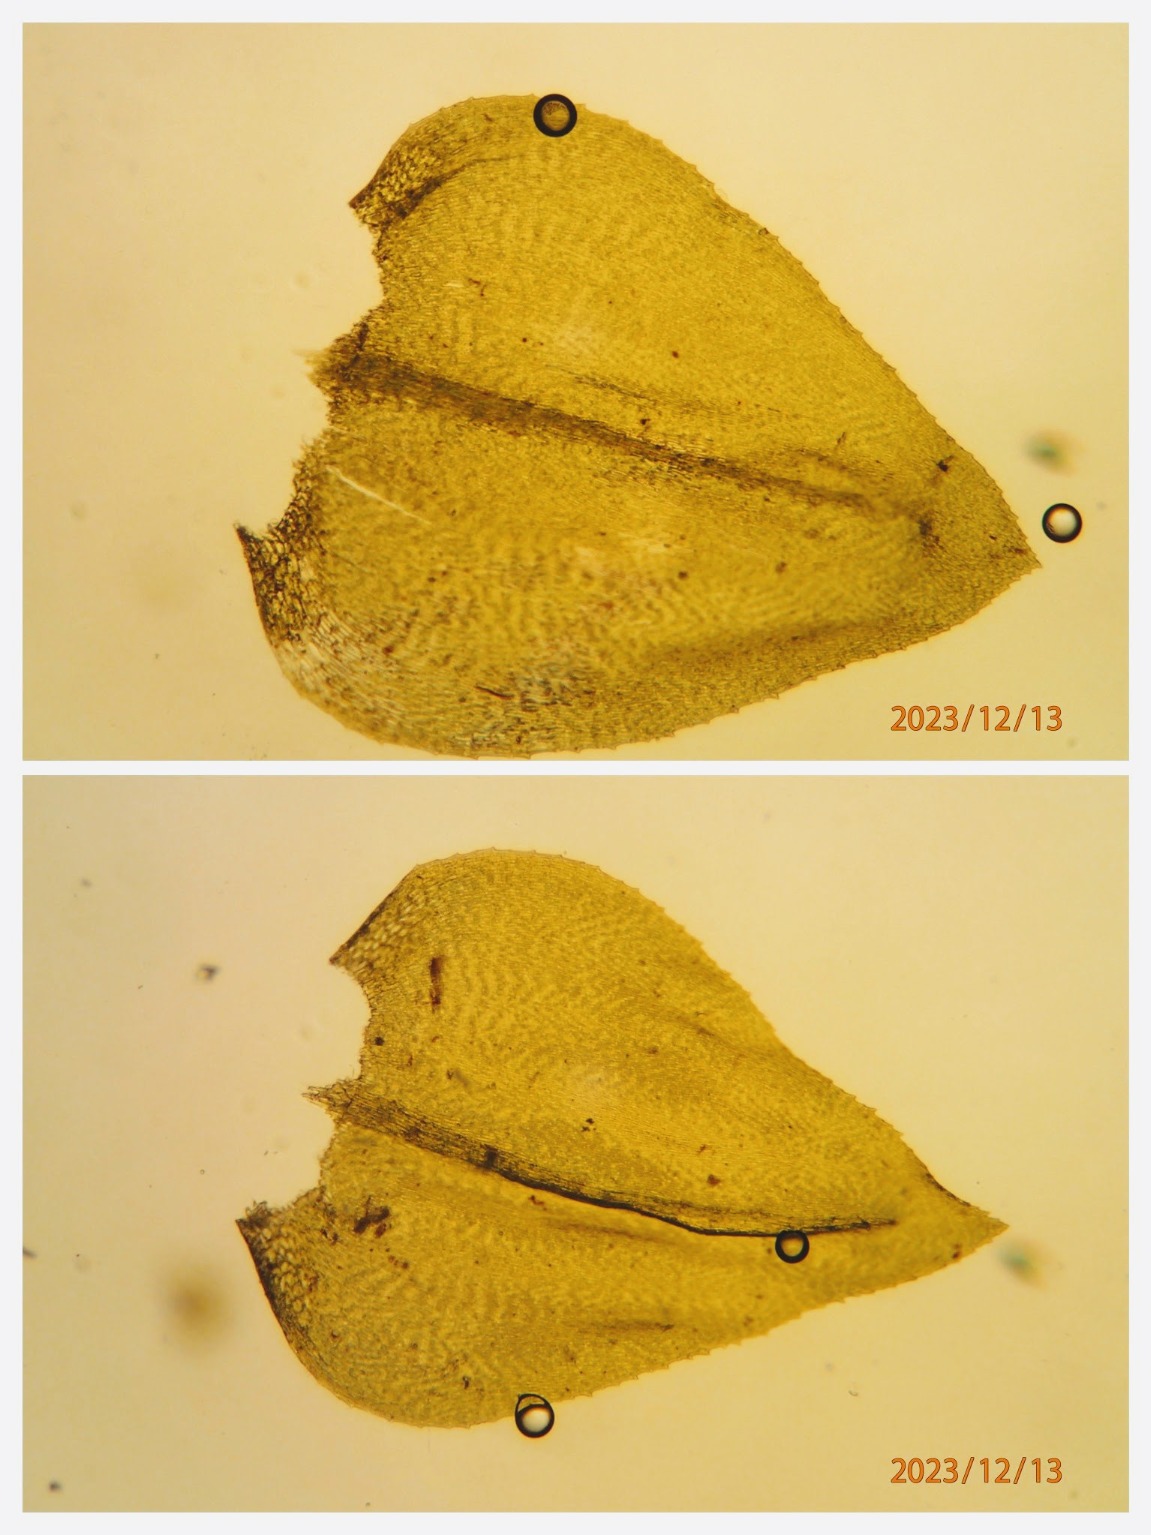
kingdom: Plantae
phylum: Bryophyta
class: Bryopsida
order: Hypnales
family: Brachytheciaceae
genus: Eurhynchium
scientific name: Eurhynchium angustirete
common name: Stor næbmos
